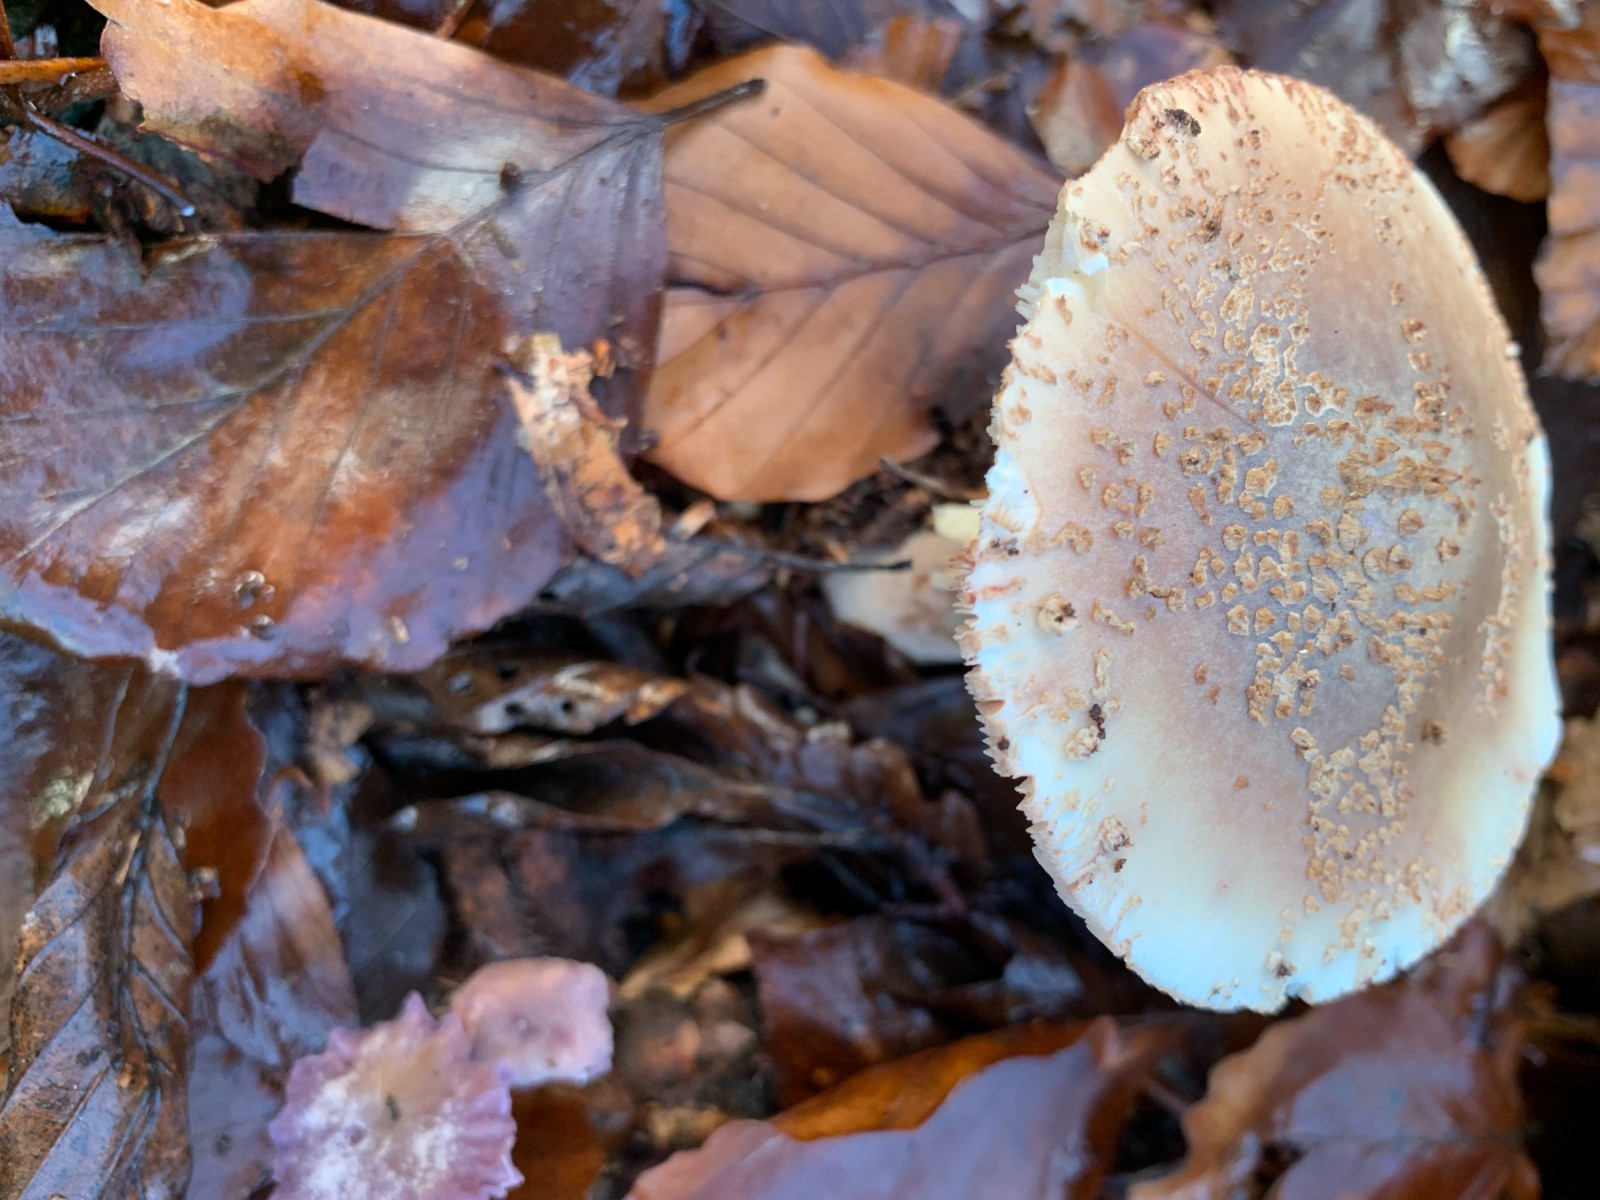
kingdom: Fungi
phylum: Basidiomycota
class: Agaricomycetes
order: Agaricales
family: Amanitaceae
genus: Amanita
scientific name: Amanita rubescens
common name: rødmende fluesvamp
